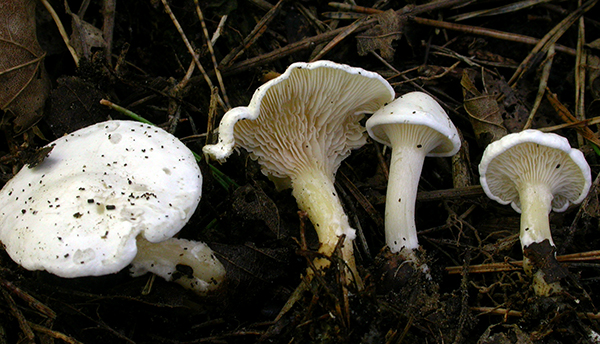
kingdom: Fungi
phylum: Basidiomycota
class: Agaricomycetes
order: Agaricales
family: Tricholomataceae
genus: Lulesia
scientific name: Lulesia
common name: hvid troldhat
